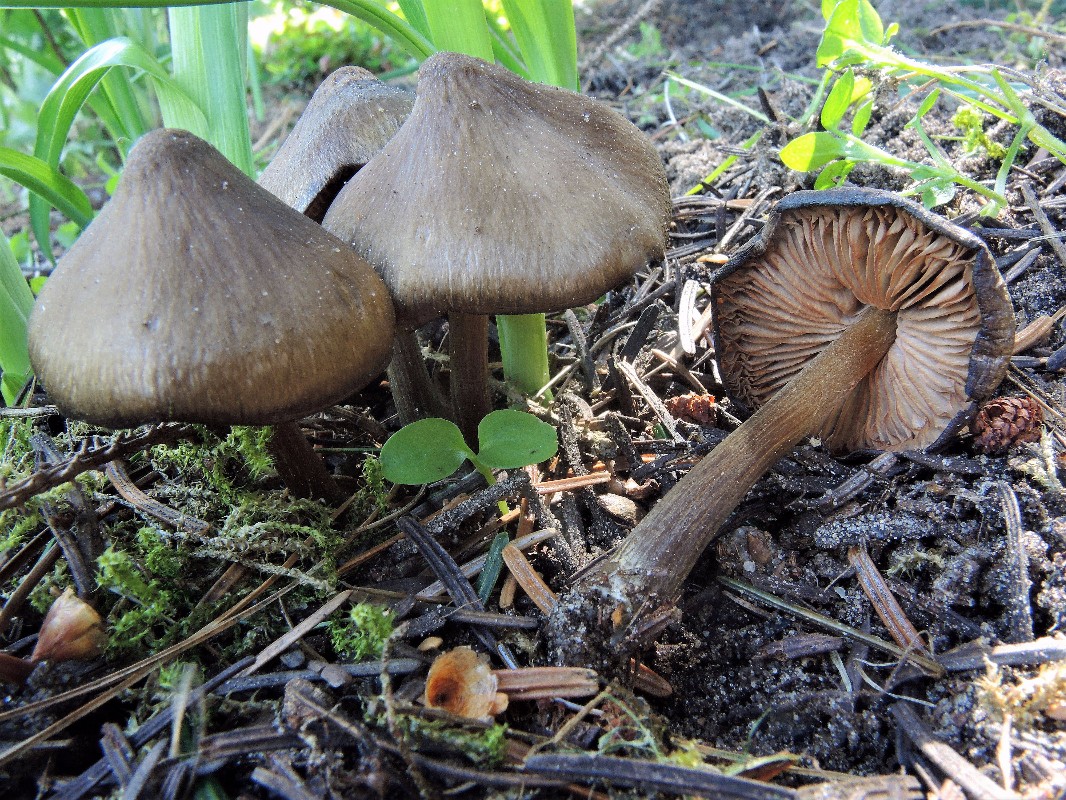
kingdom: Fungi
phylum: Basidiomycota
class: Agaricomycetes
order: Agaricales
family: Entolomataceae
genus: Entoloma
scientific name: Entoloma vernum
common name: vår-rødblad
